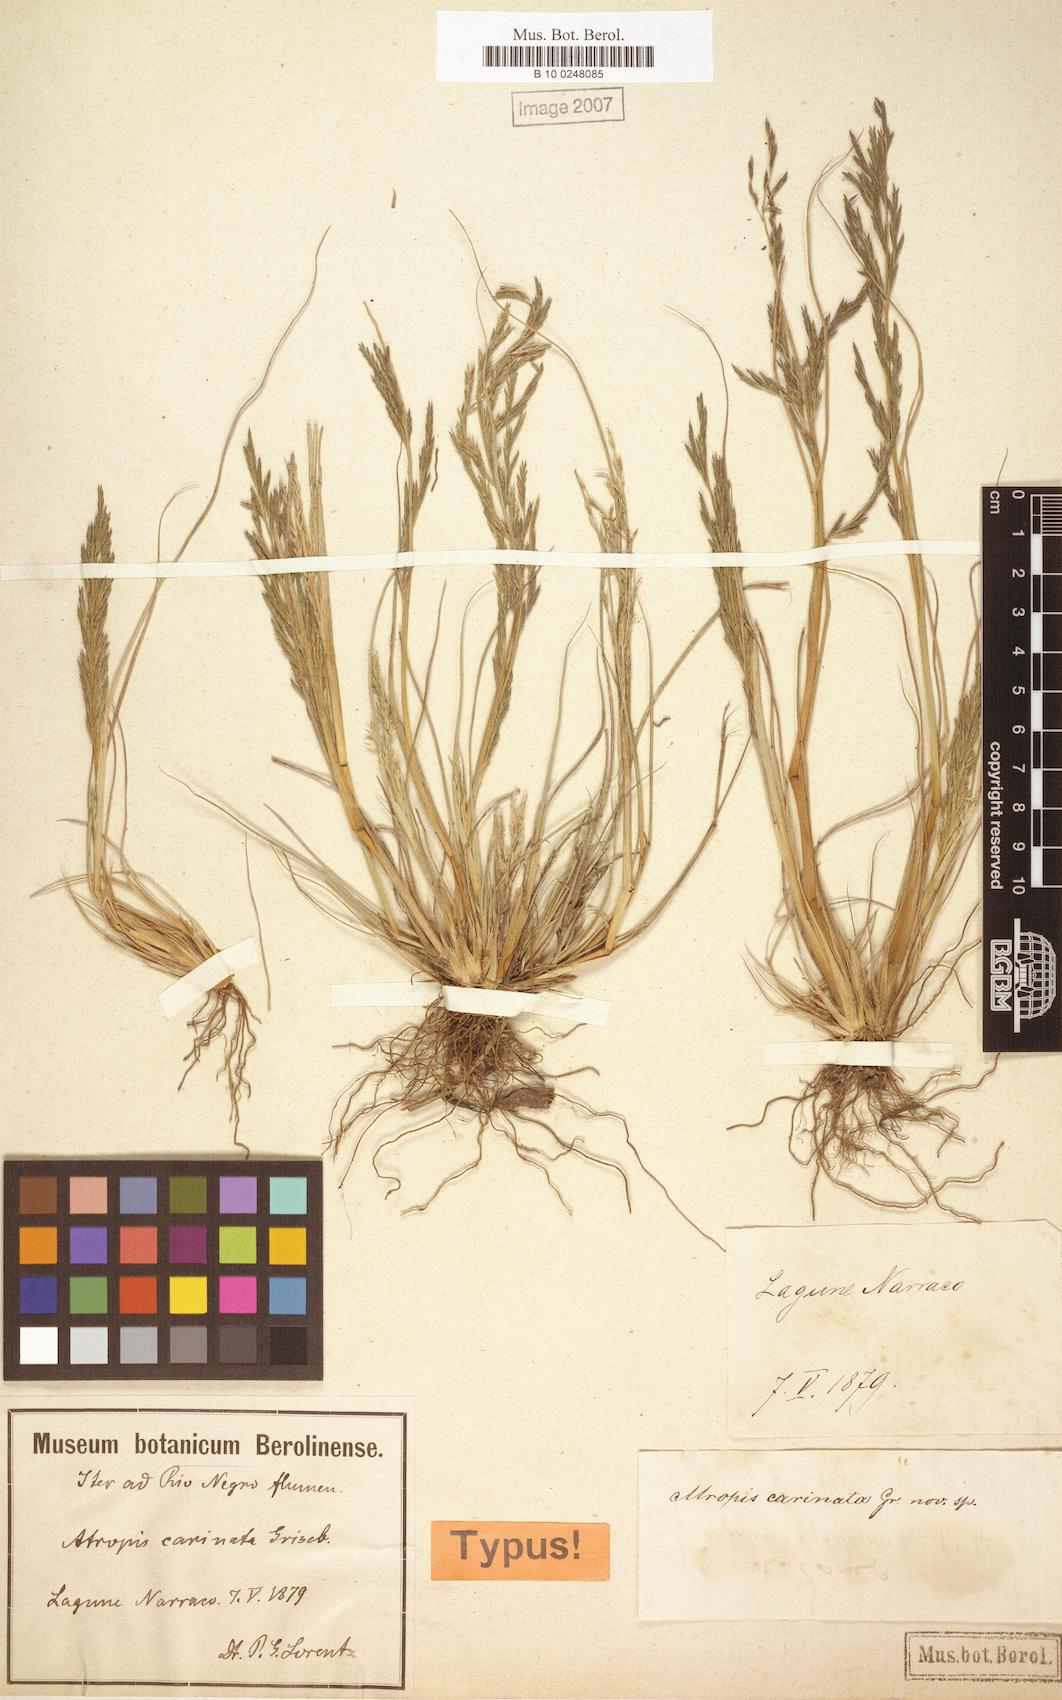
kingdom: Plantae
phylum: Tracheophyta
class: Liliopsida
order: Poales
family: Poaceae
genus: Diplachne
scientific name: Diplachne fusca
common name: Brown beetle grass
